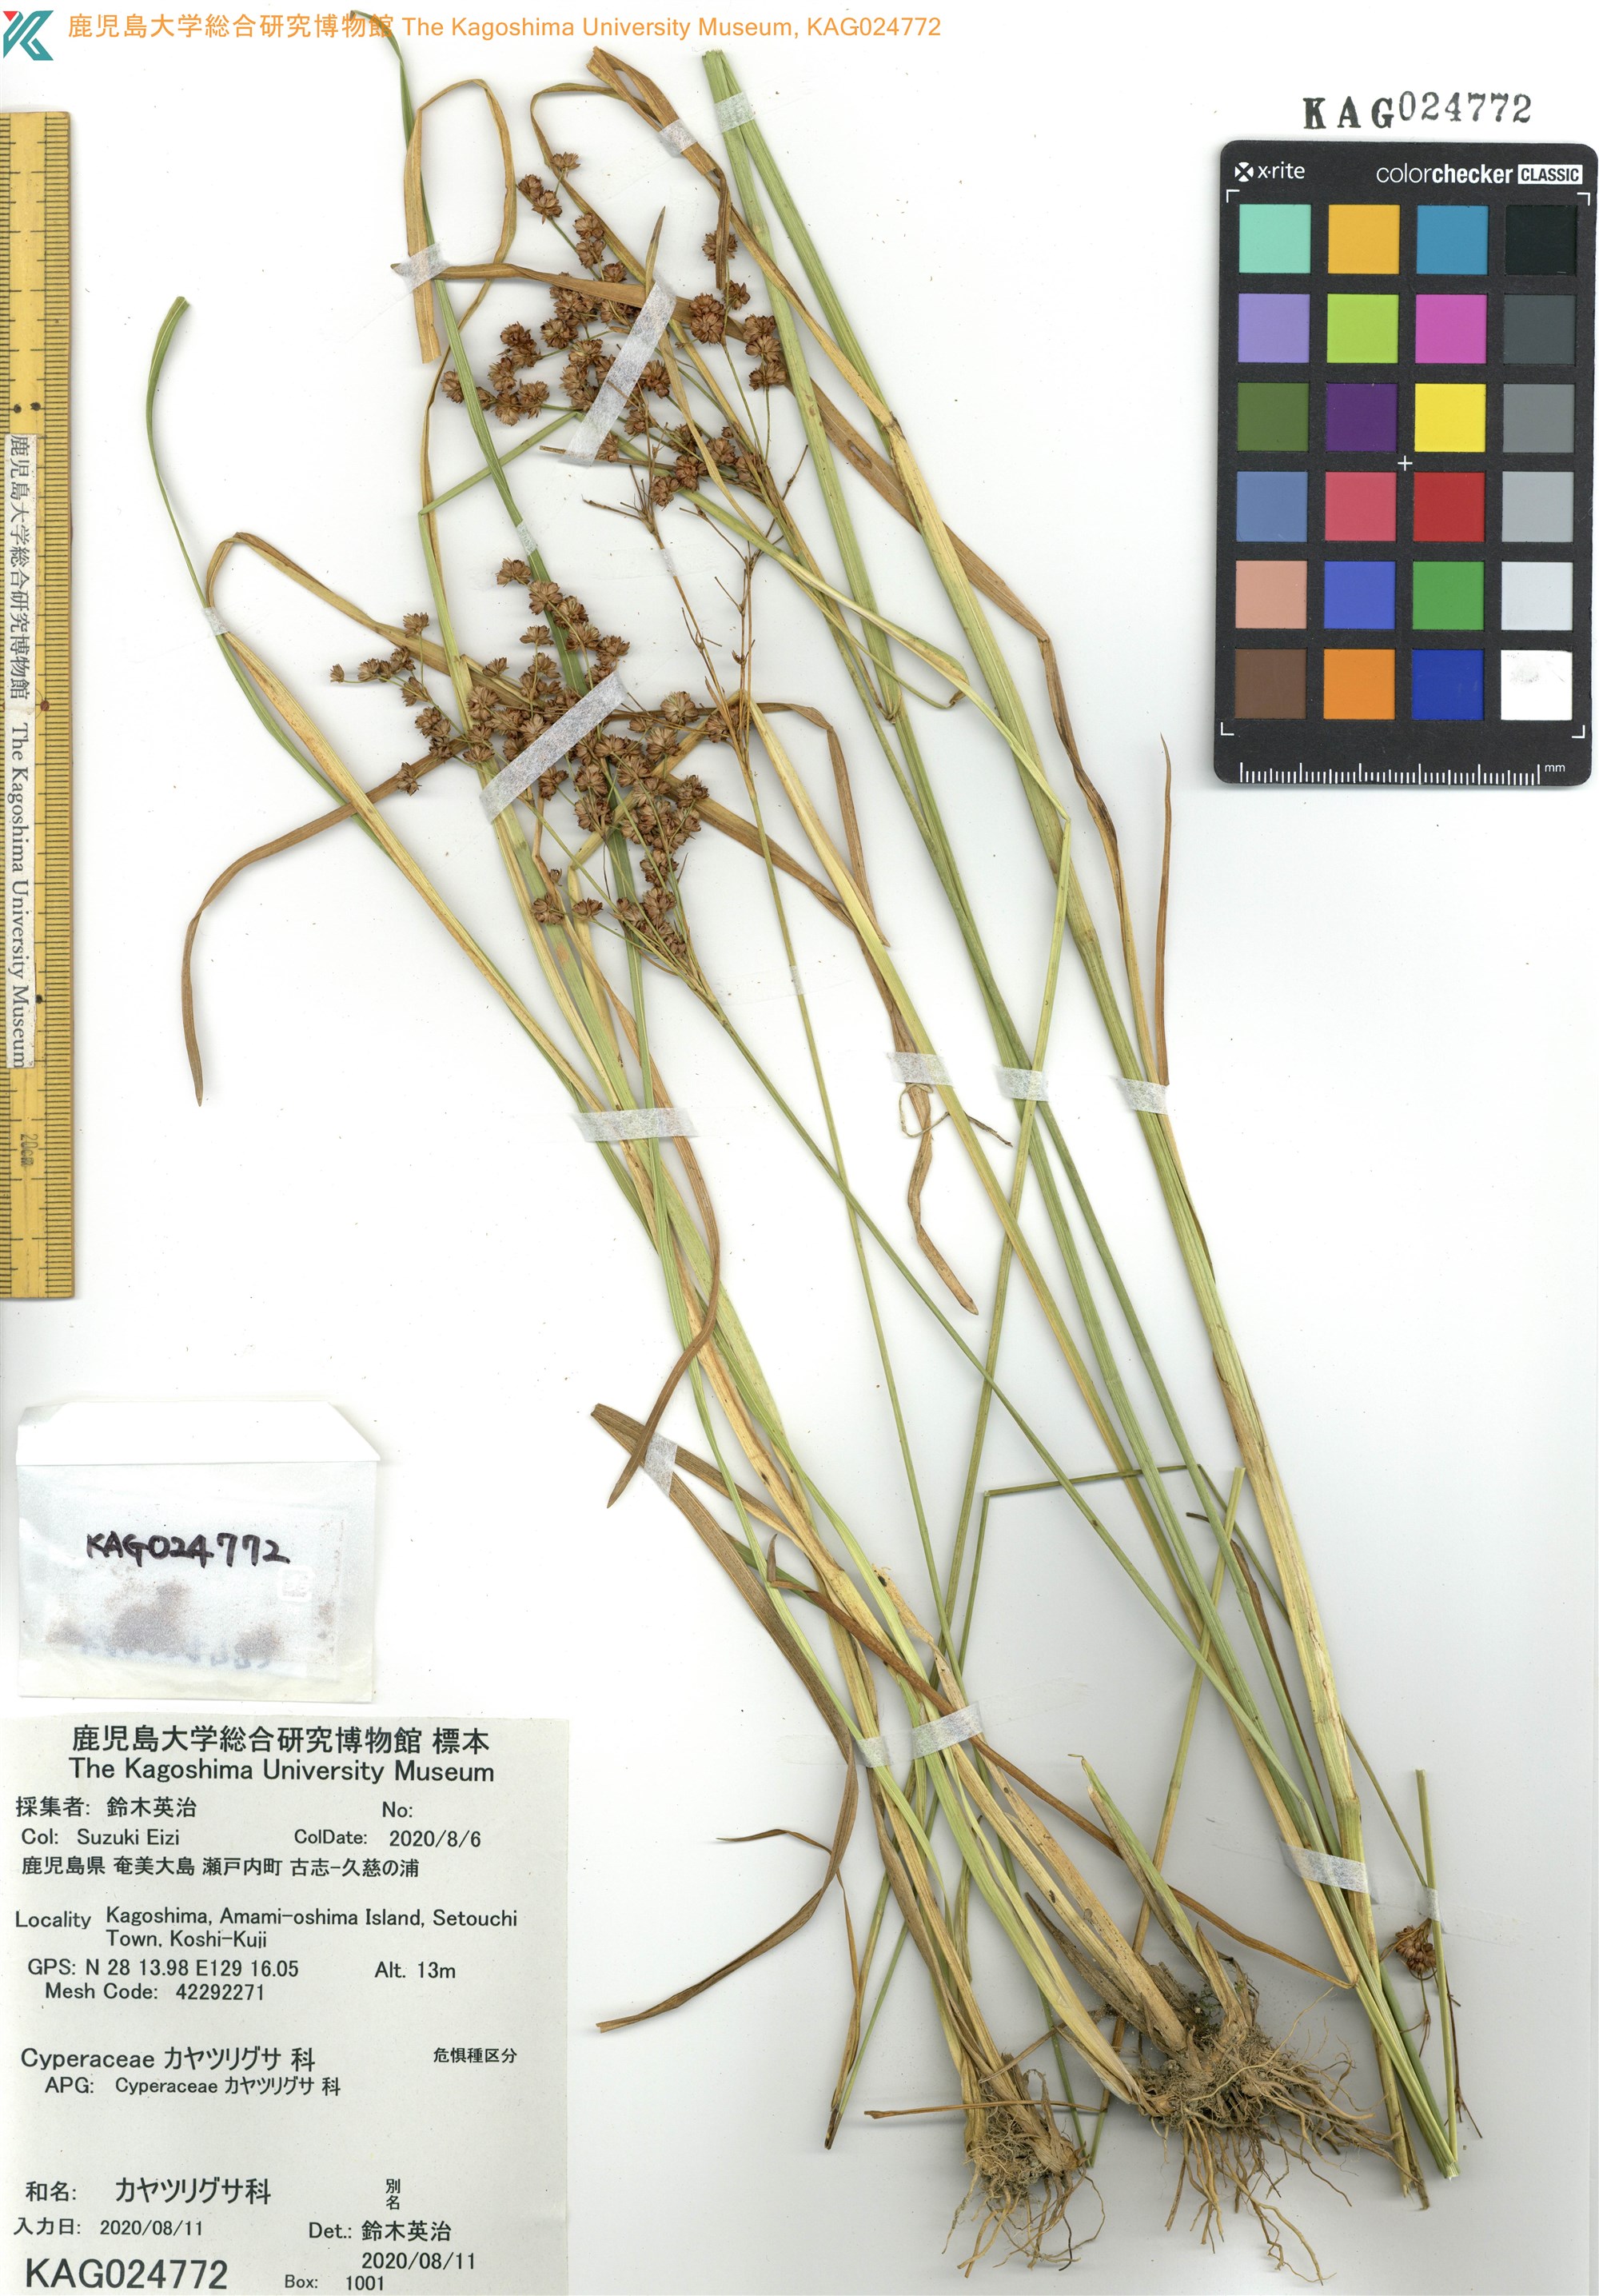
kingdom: Plantae
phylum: Tracheophyta
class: Liliopsida
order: Poales
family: Juncaceae
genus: Juncus
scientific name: Juncus marginatus
